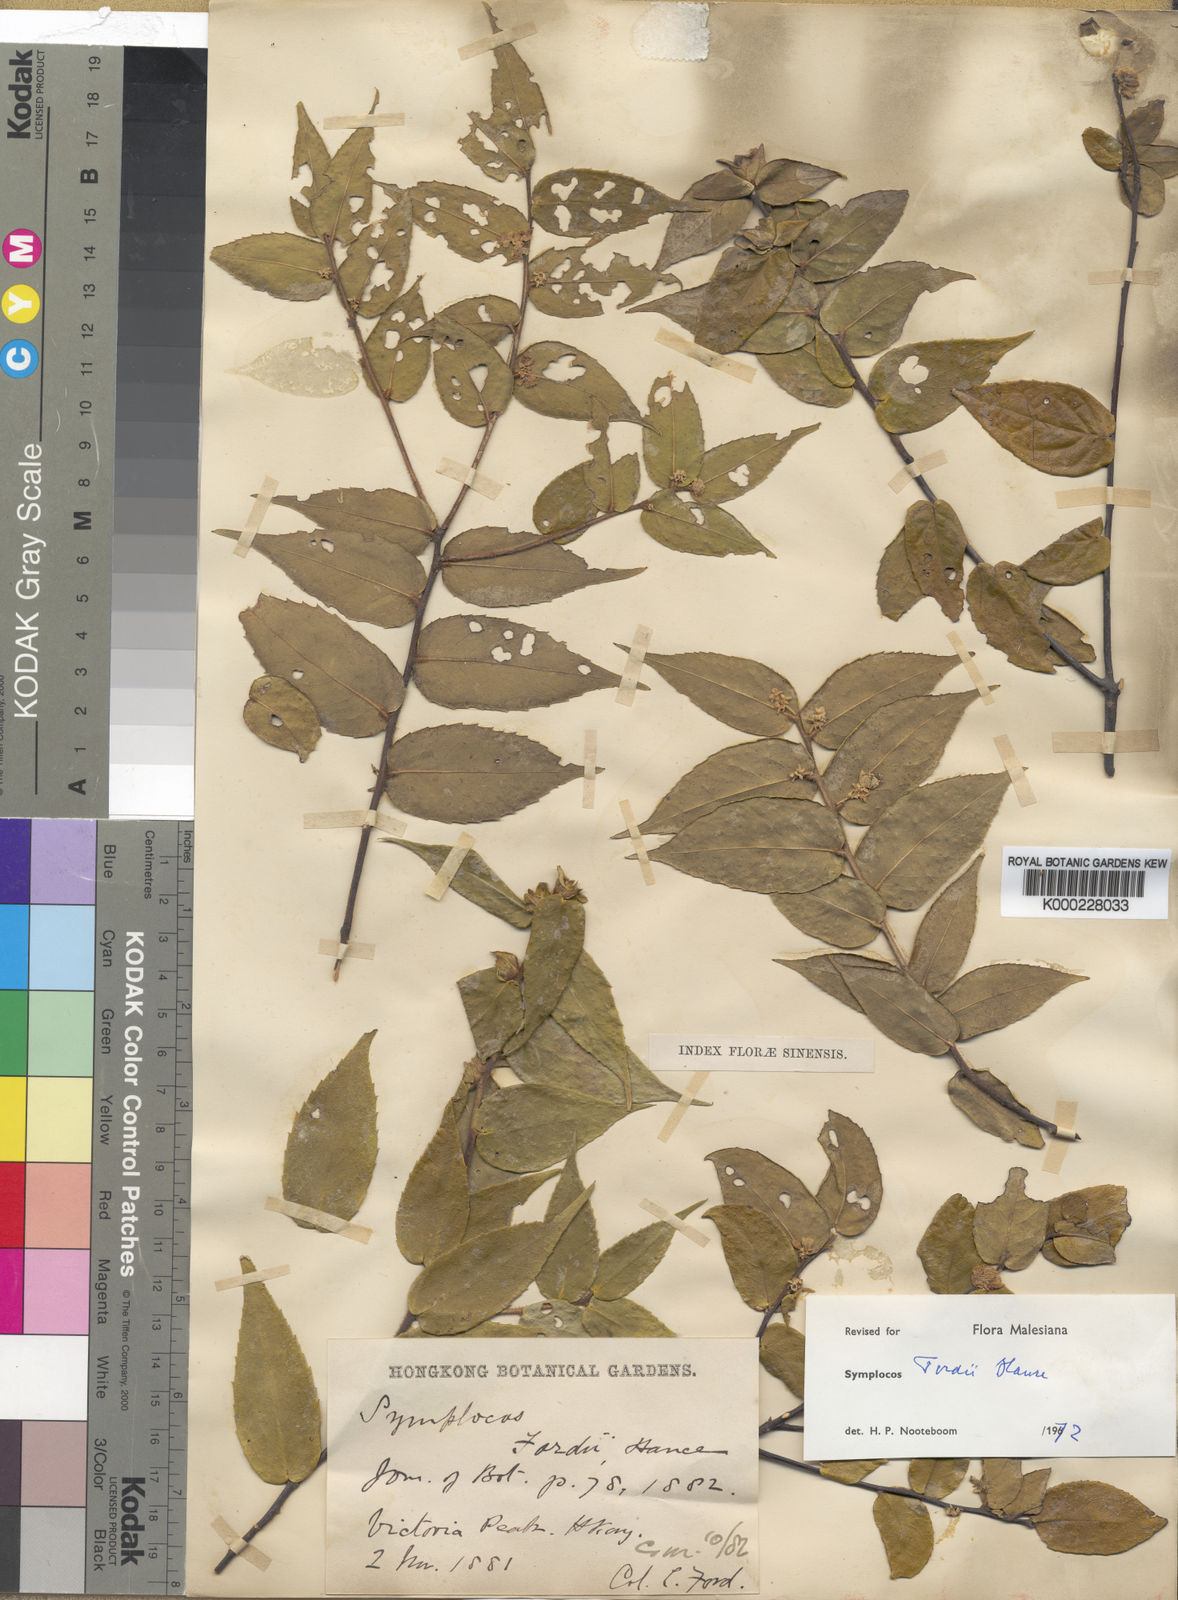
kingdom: Plantae
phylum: Tracheophyta
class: Magnoliopsida
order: Ericales
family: Symplocaceae
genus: Symplocos
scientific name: Symplocos fordii
